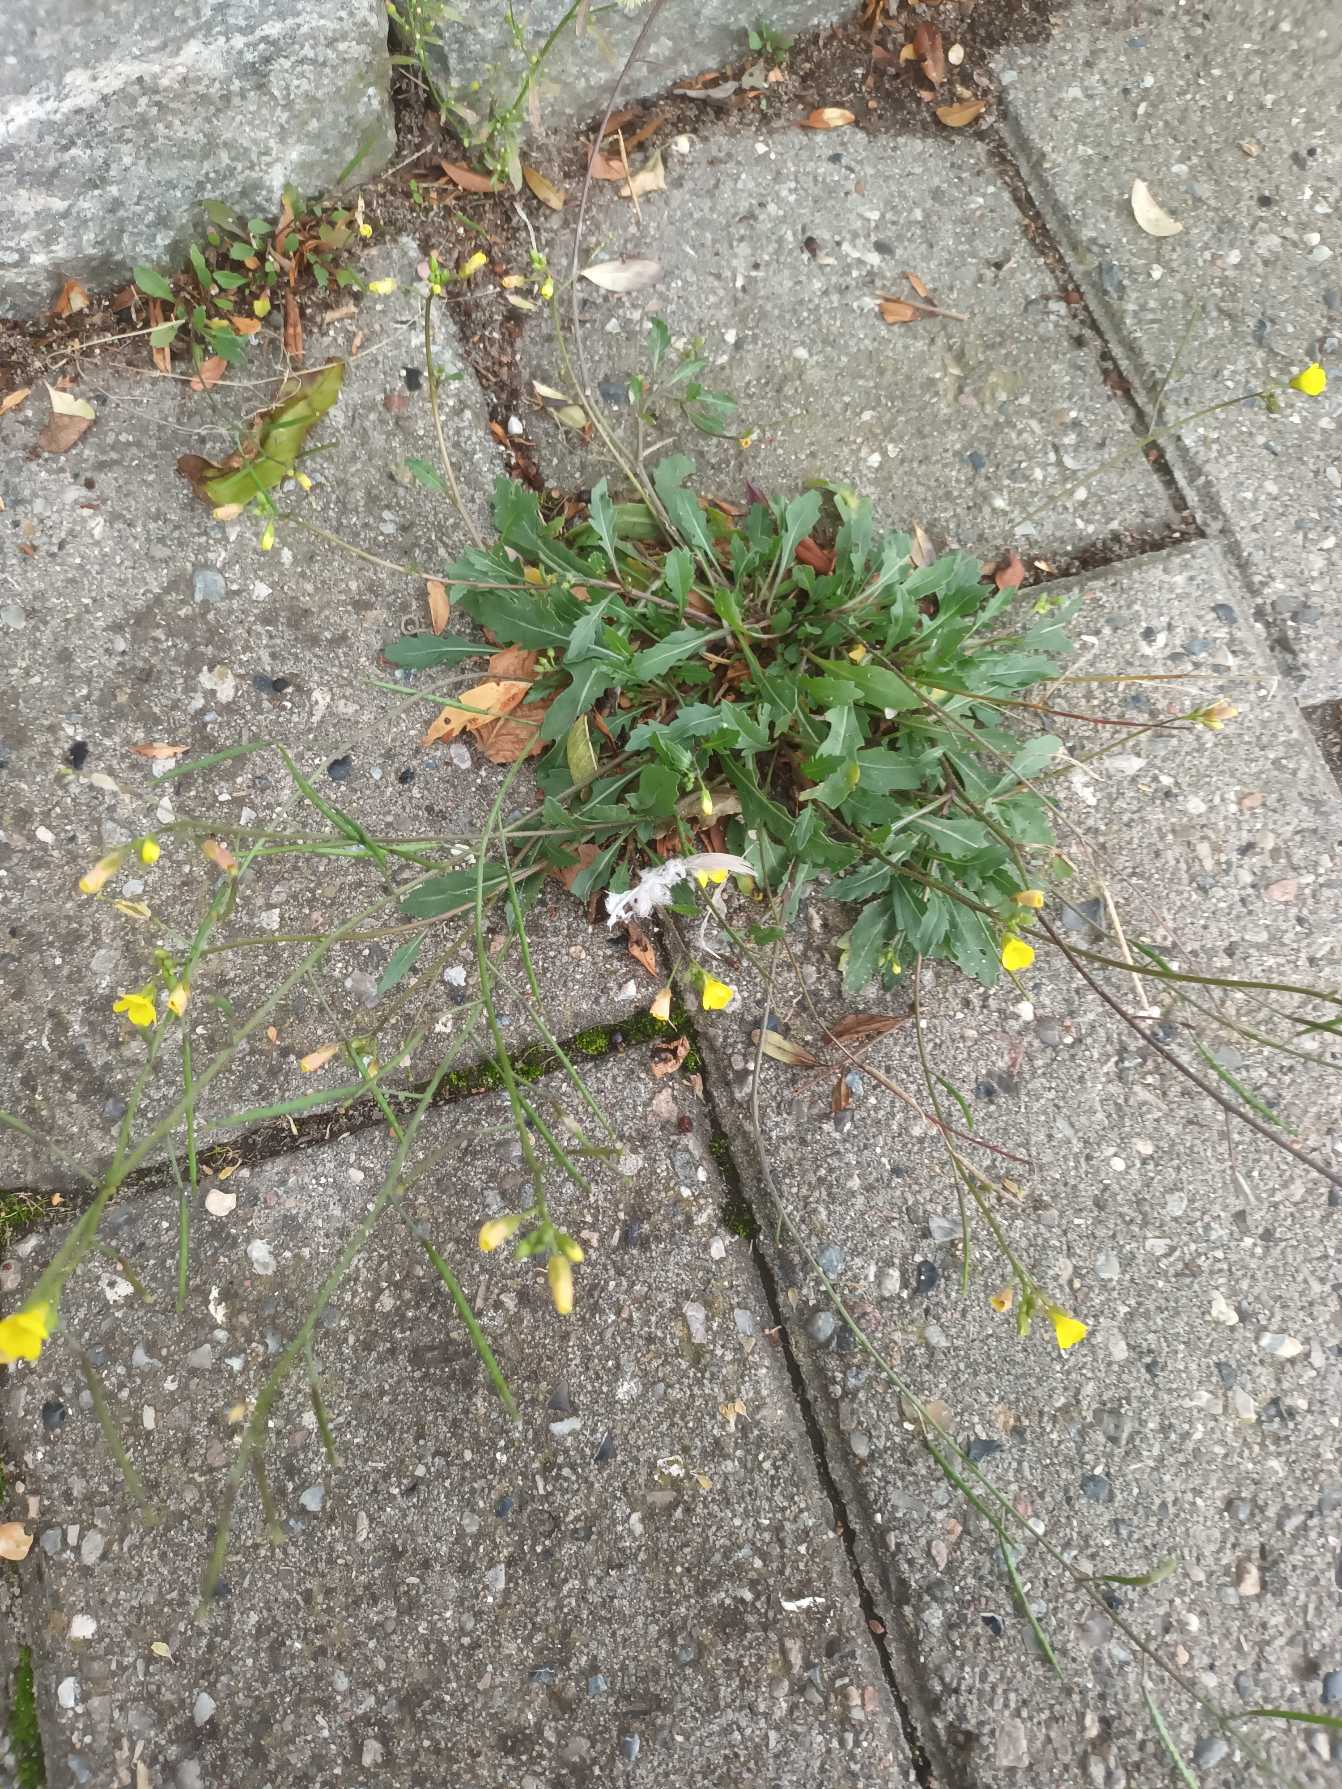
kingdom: Plantae
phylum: Tracheophyta
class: Magnoliopsida
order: Brassicales
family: Brassicaceae
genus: Diplotaxis
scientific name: Diplotaxis muralis
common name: Mursennep
